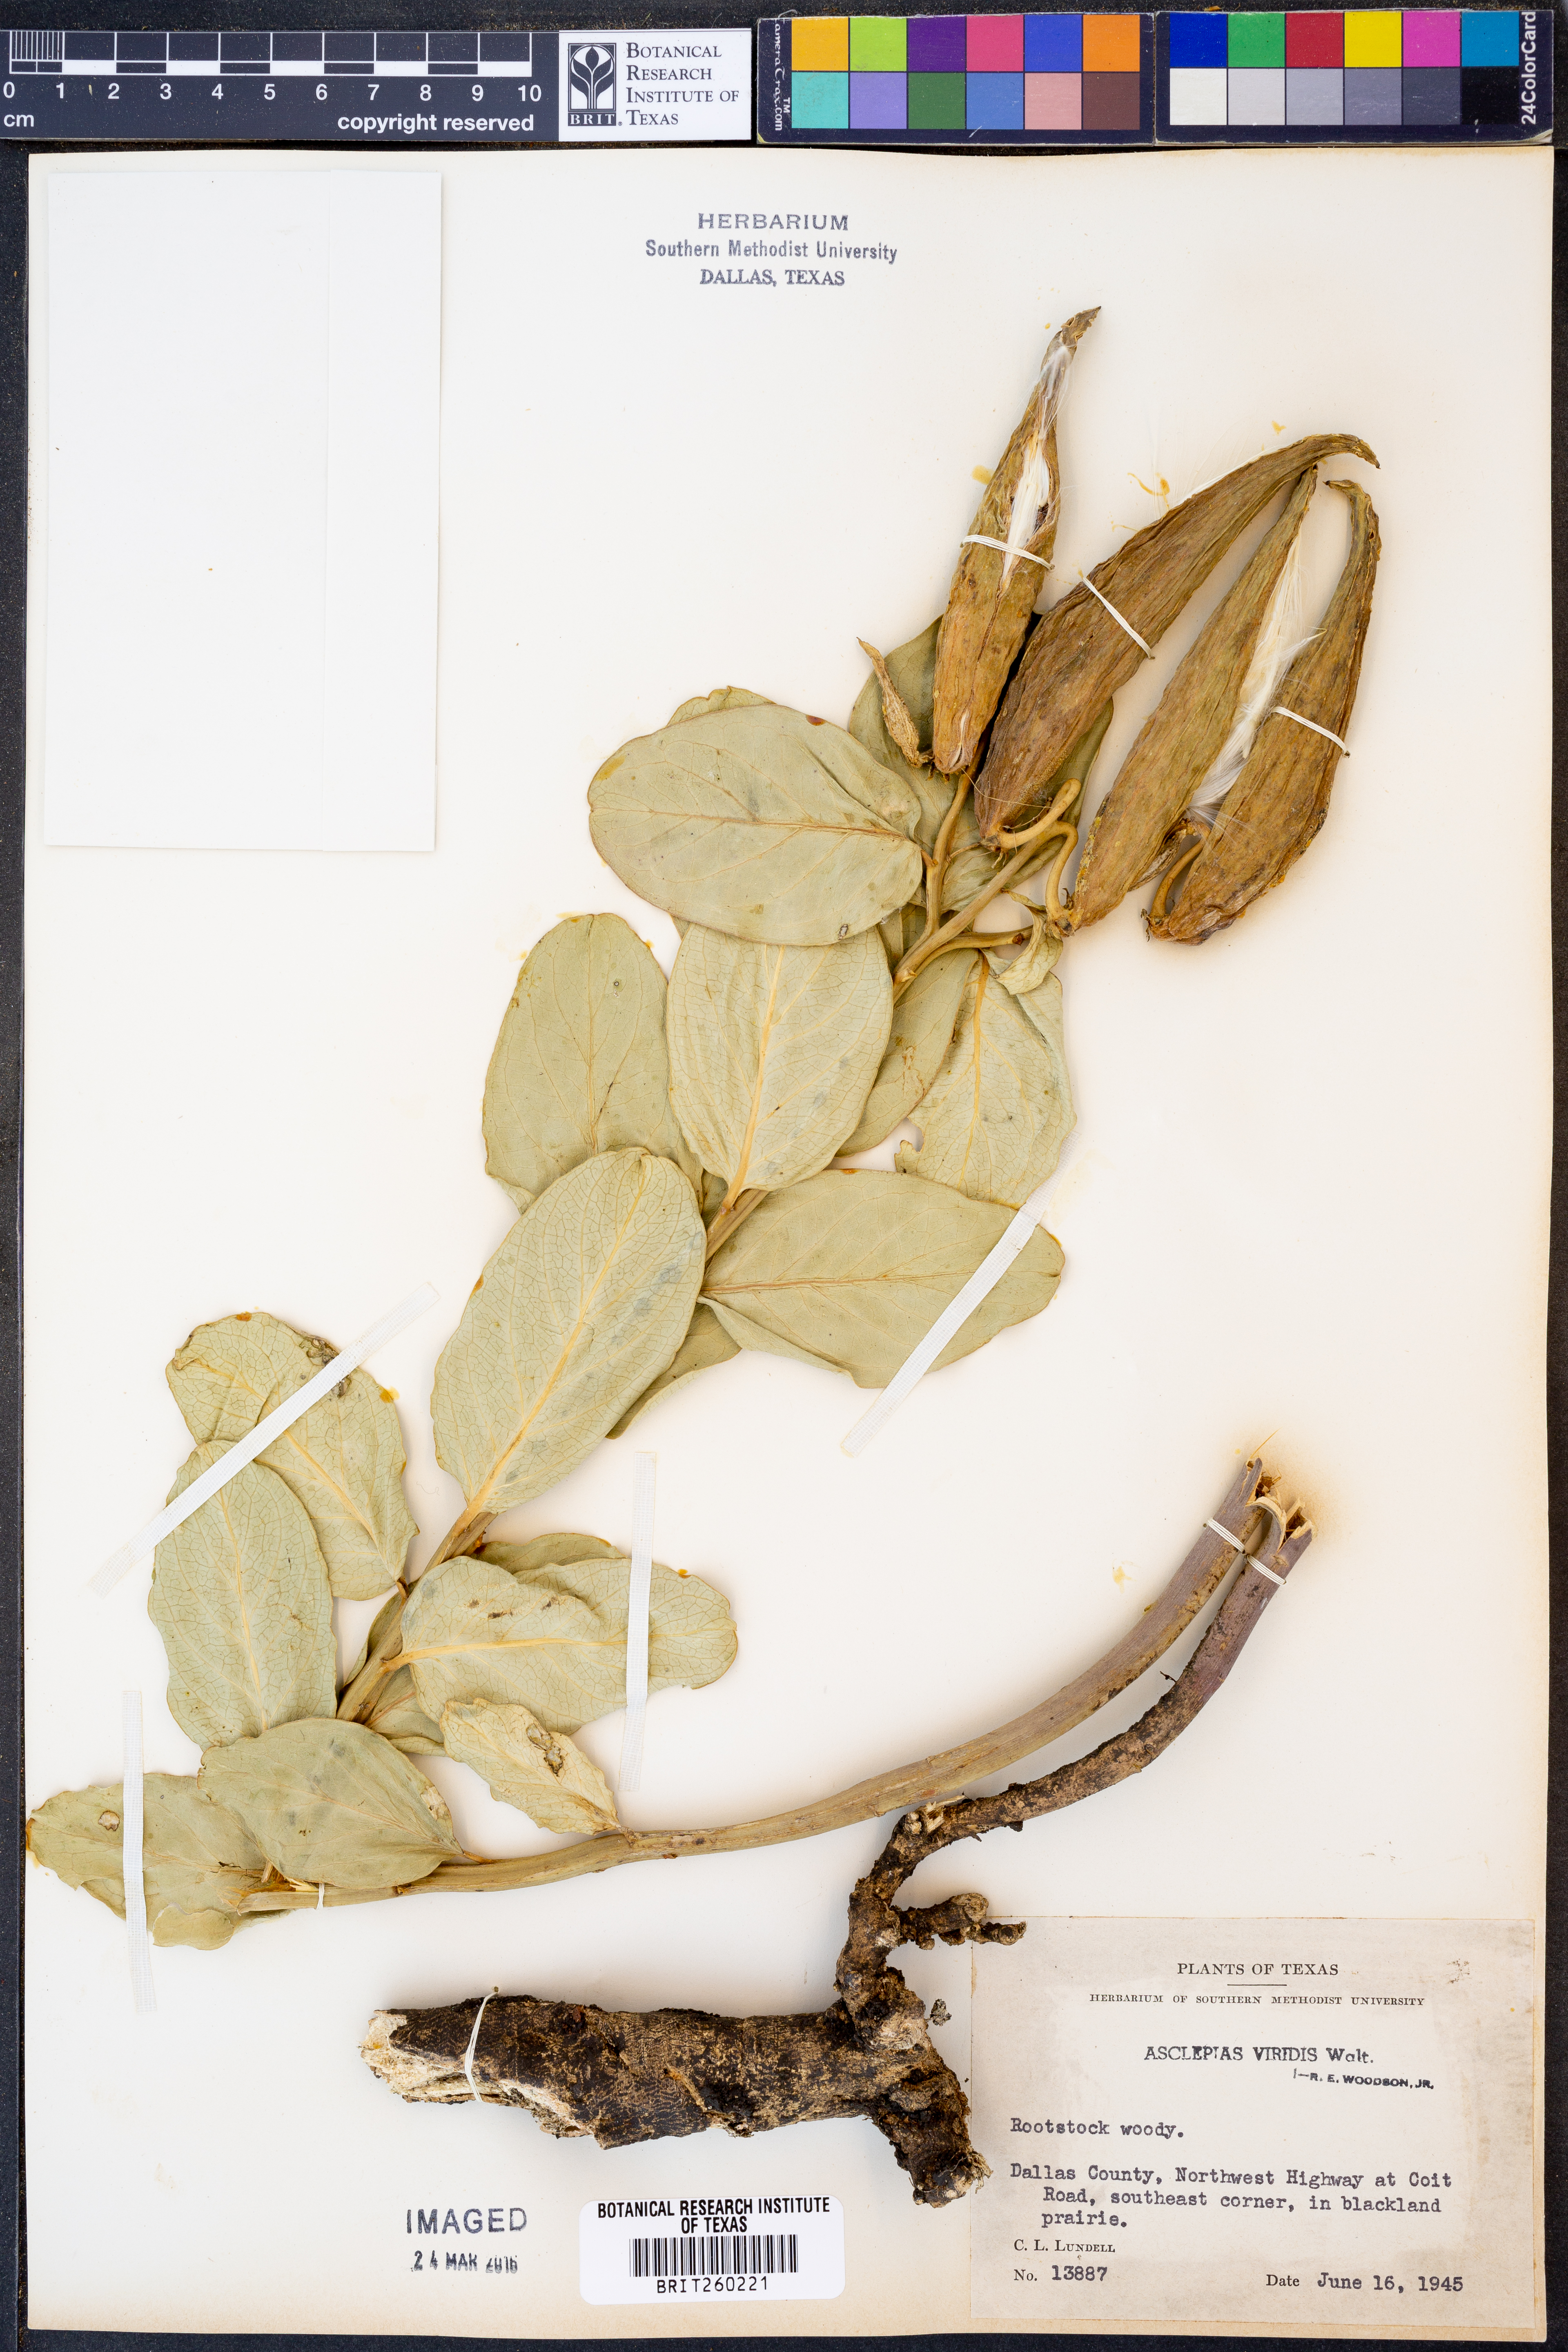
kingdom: Plantae
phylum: Tracheophyta
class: Magnoliopsida
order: Gentianales
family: Apocynaceae
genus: Asclepias
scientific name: Asclepias viridis
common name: Antelope-horns
